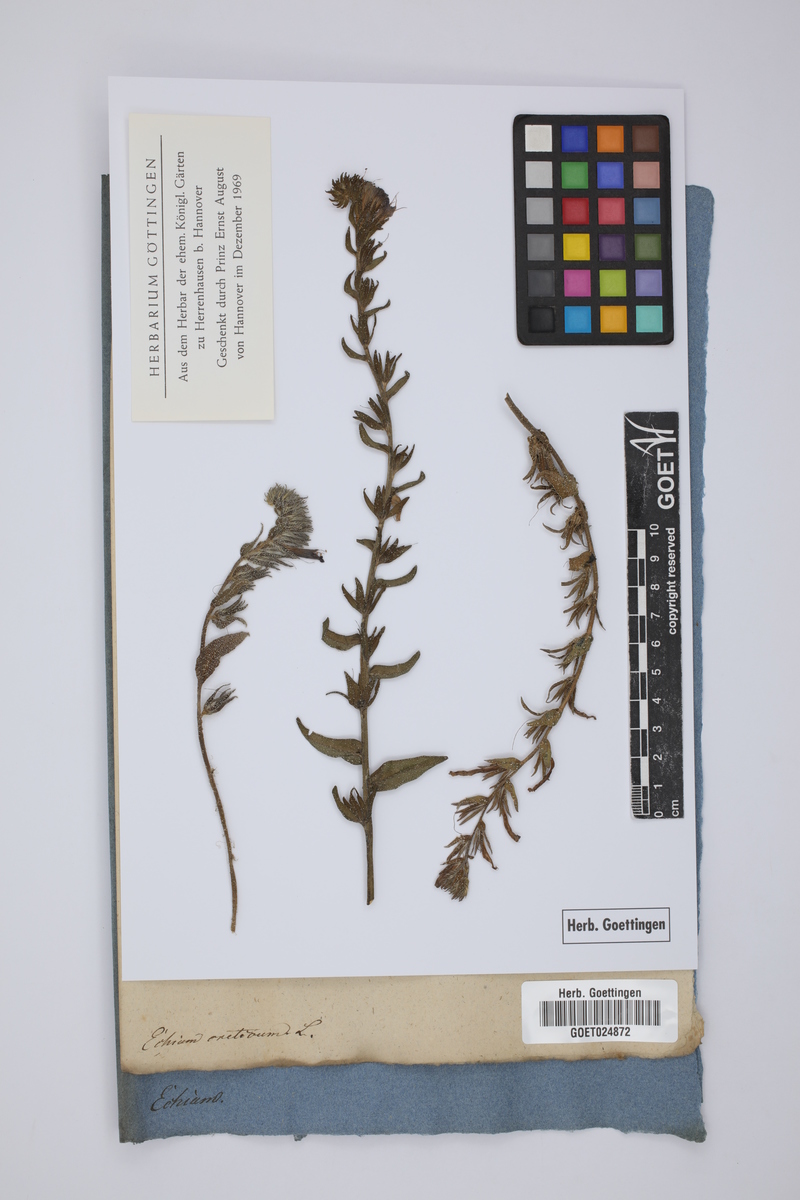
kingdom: Plantae
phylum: Tracheophyta
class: Magnoliopsida
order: Boraginales
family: Boraginaceae
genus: Echium
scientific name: Echium creticum
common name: Cretan viper's bugloss
